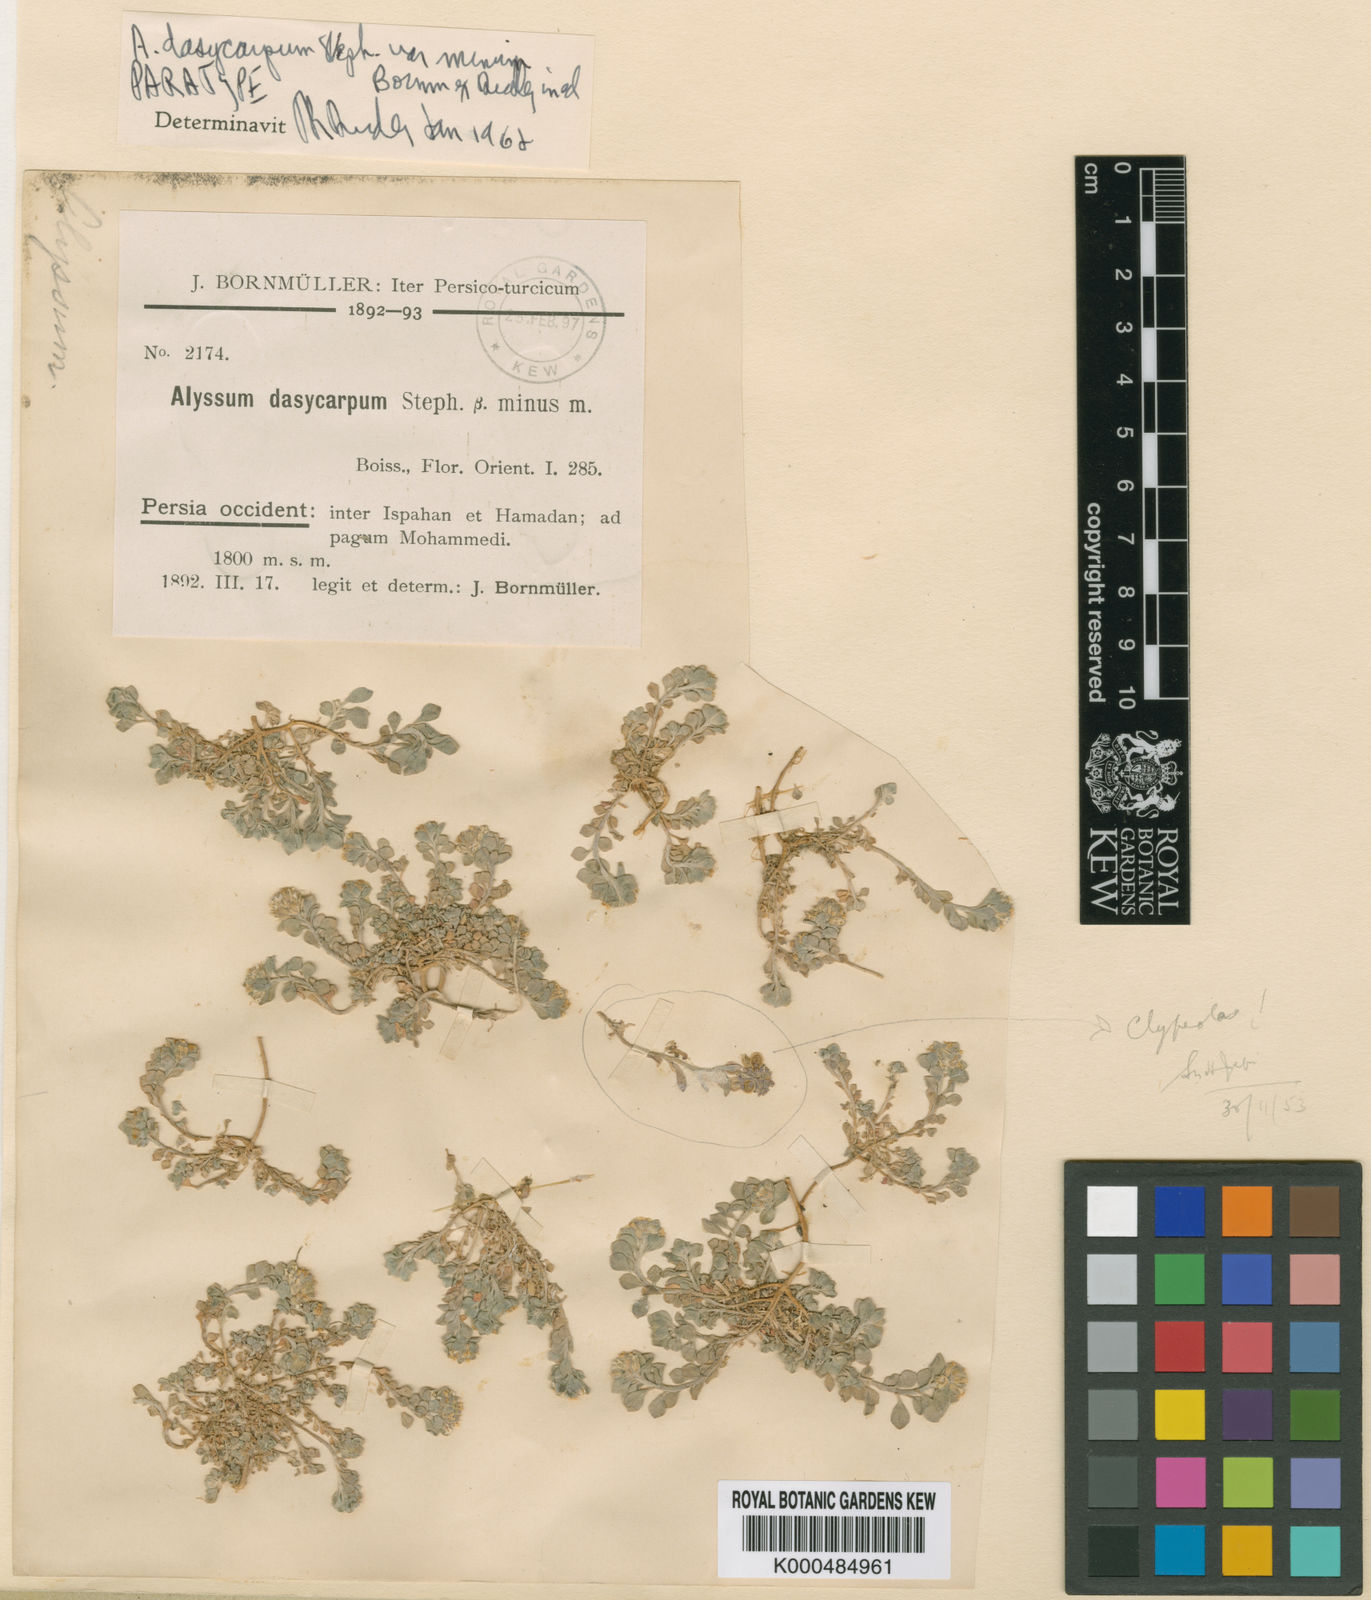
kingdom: Plantae
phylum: Tracheophyta
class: Magnoliopsida
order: Brassicales
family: Brassicaceae
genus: Alyssum
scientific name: Alyssum dasycarpum
